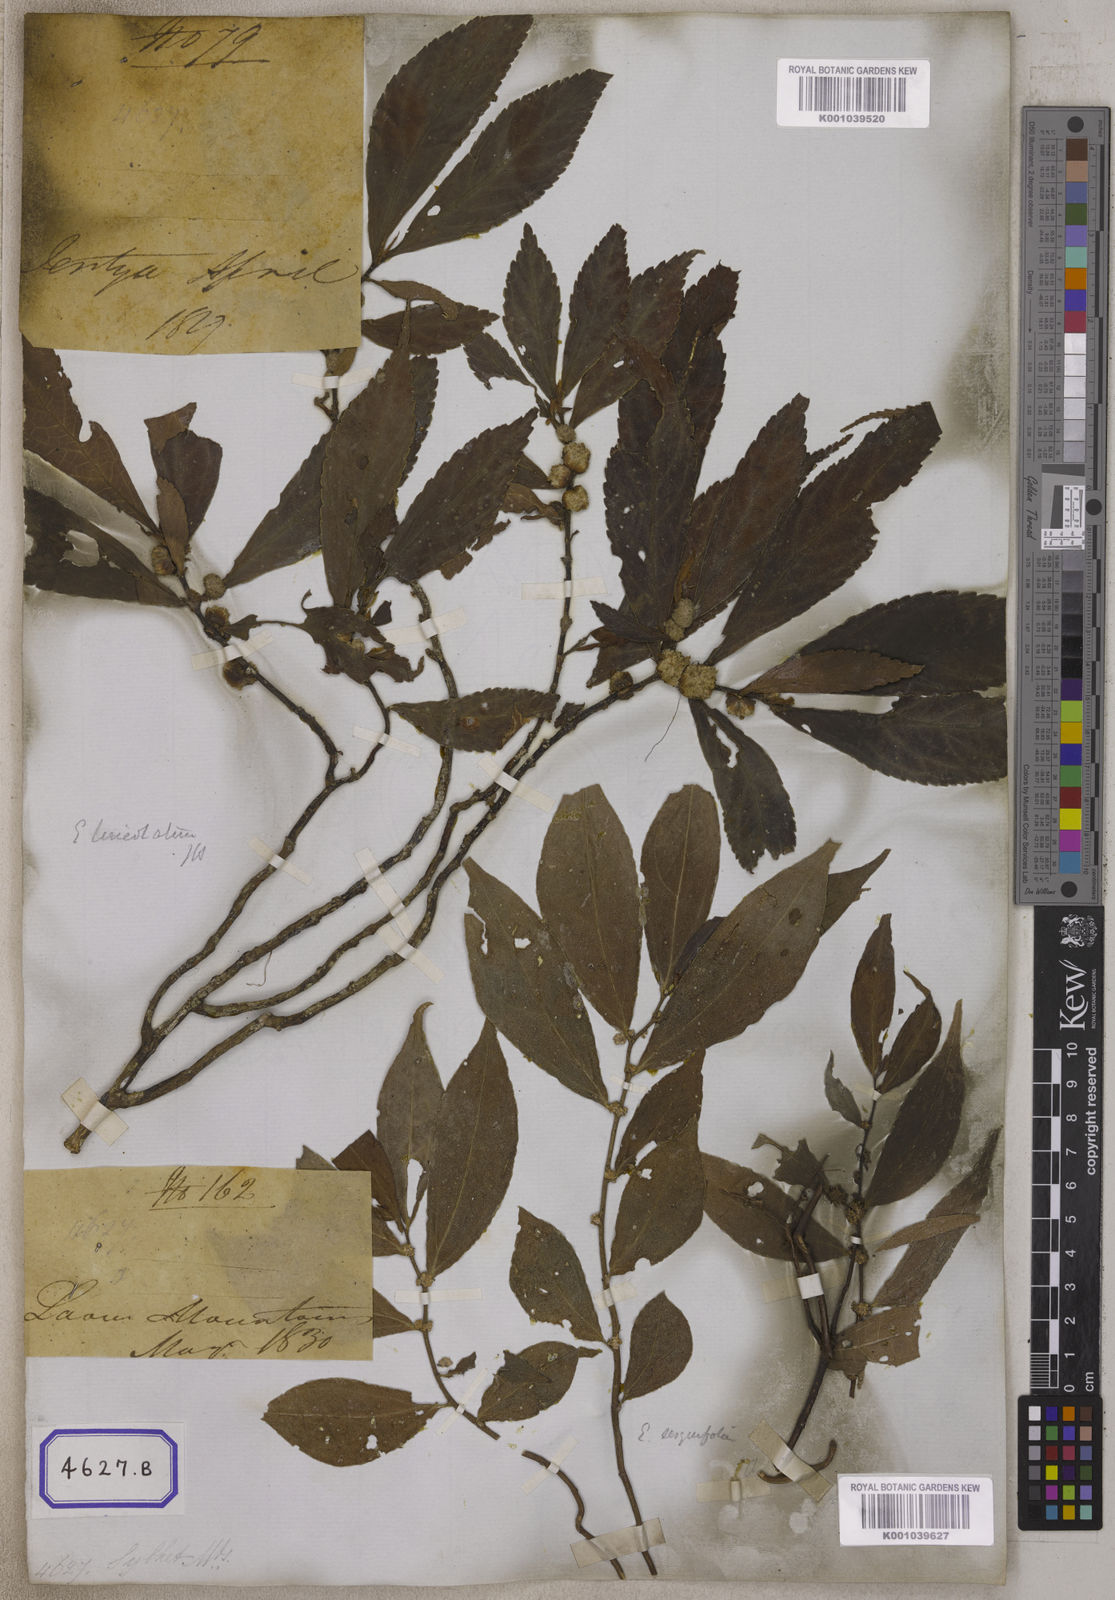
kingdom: Plantae
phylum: Tracheophyta
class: Magnoliopsida
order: Rosales
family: Urticaceae
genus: Procris
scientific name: Procris
